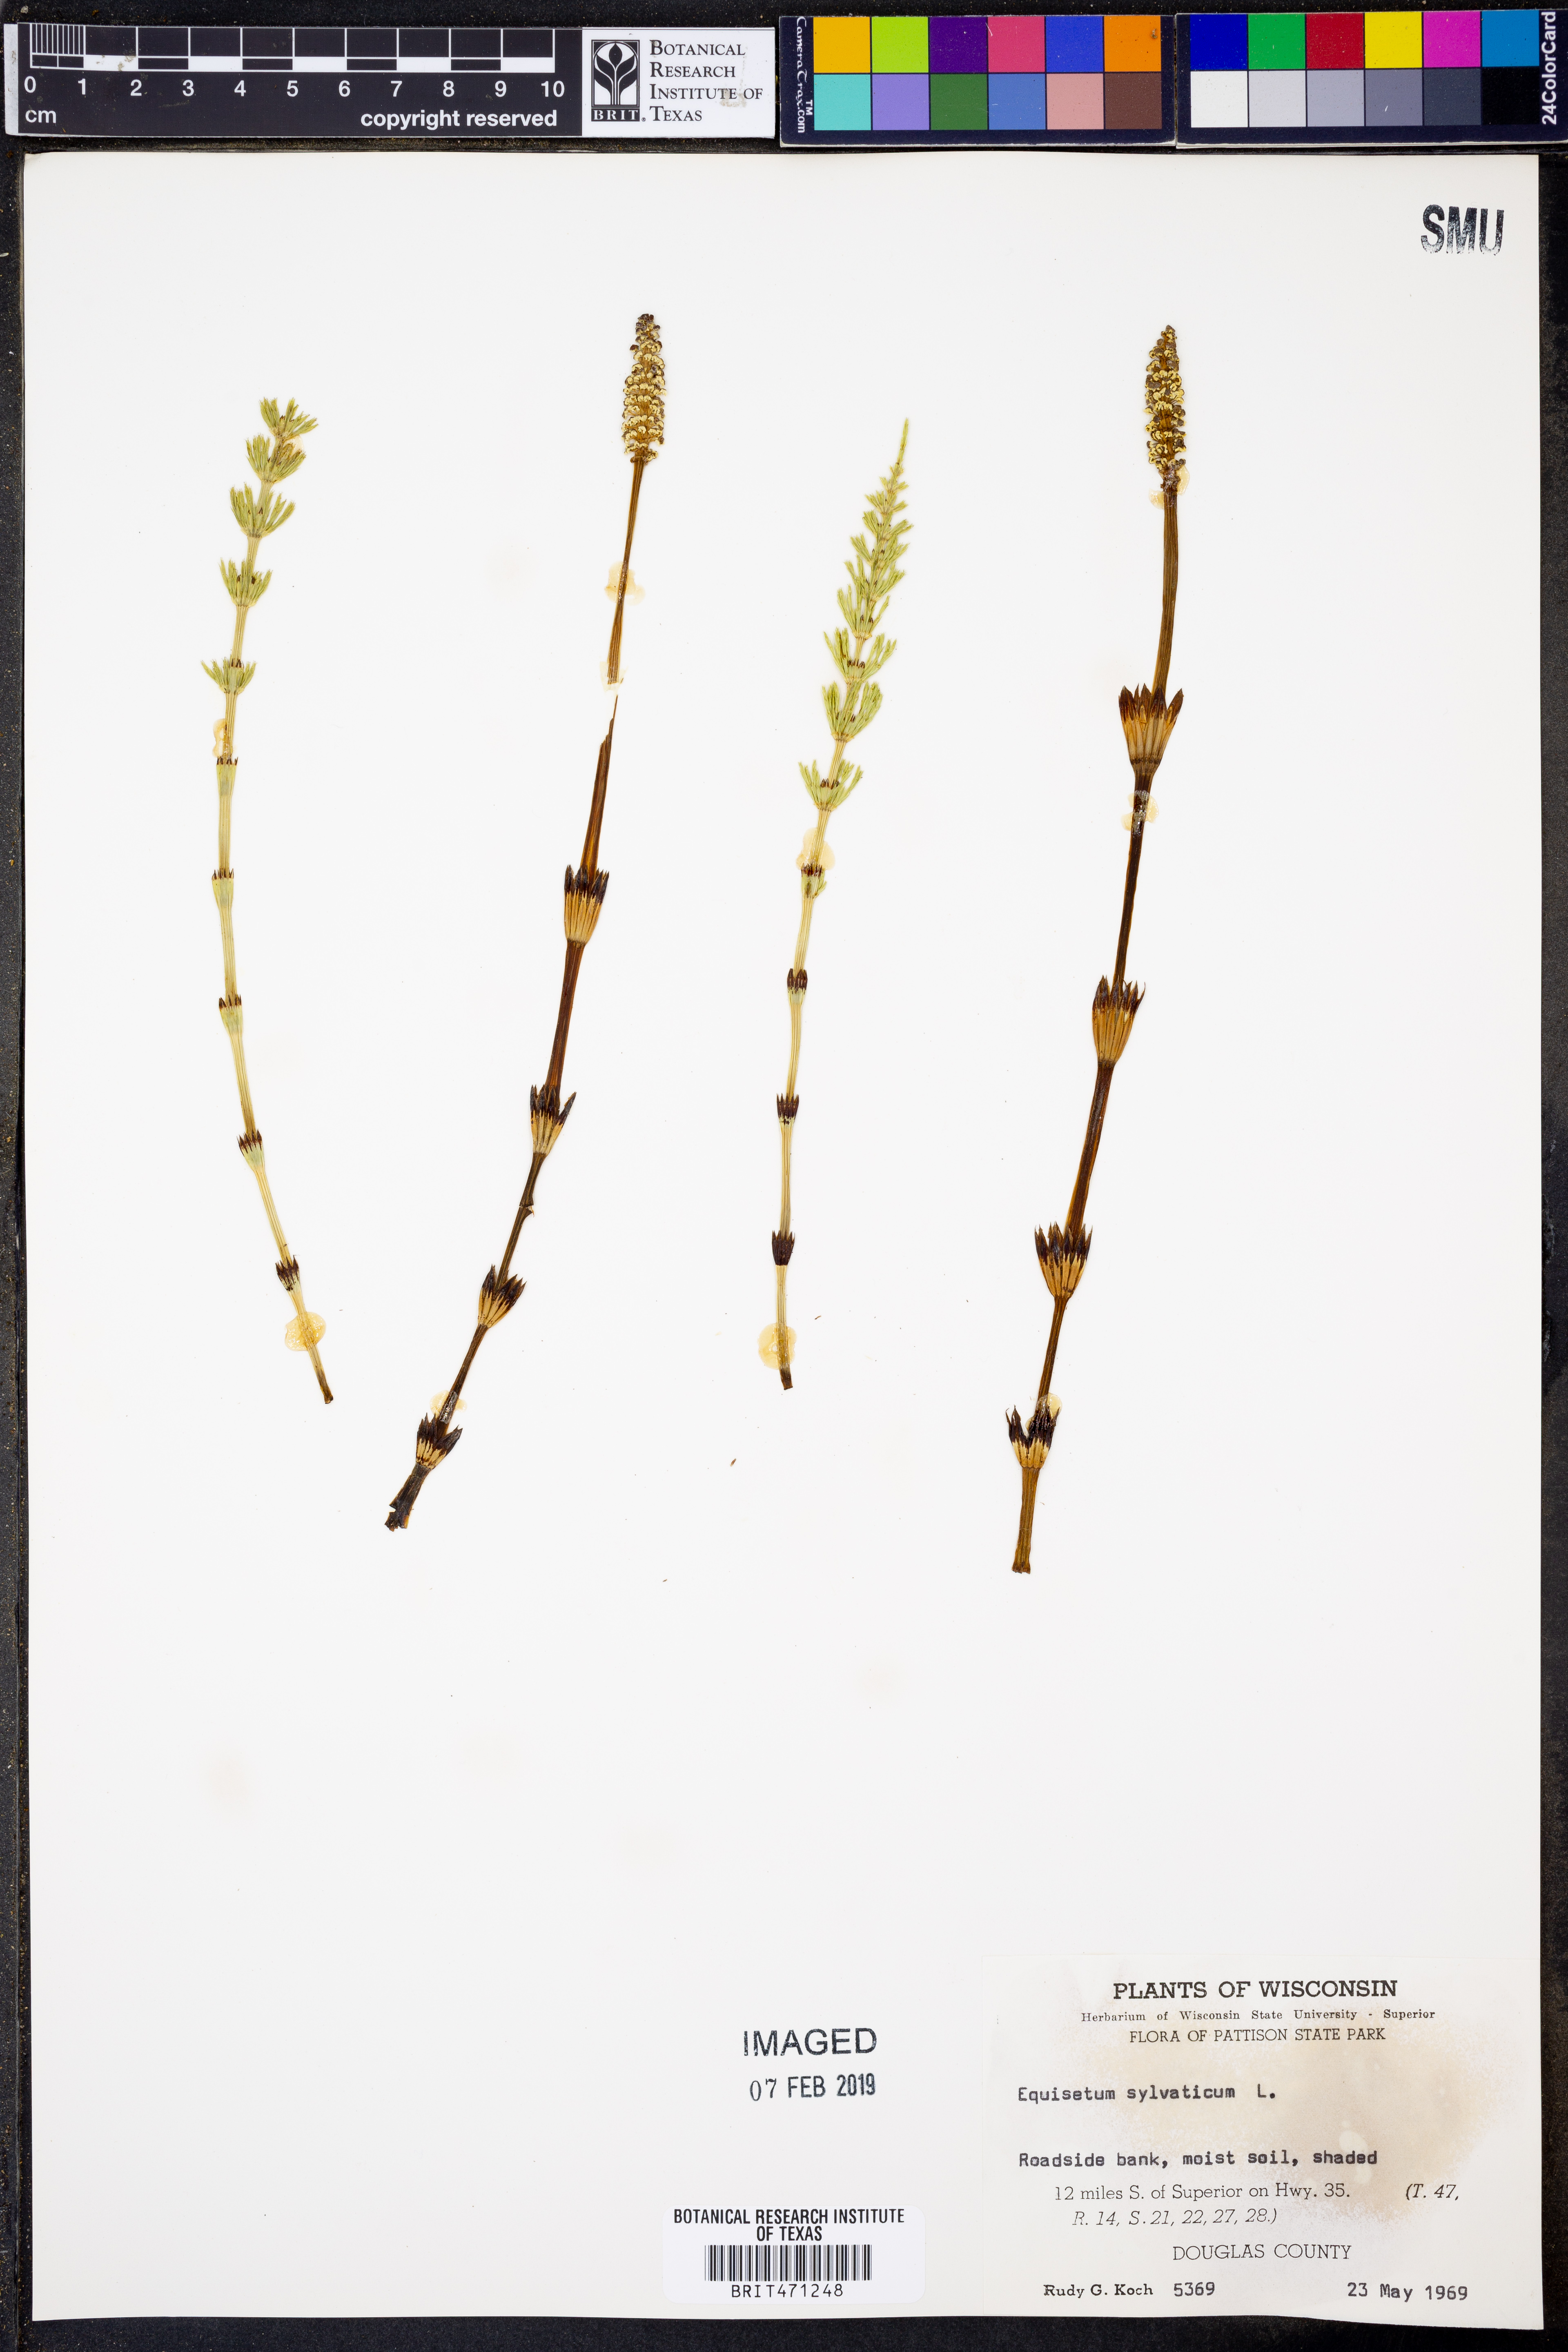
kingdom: Plantae
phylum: Tracheophyta
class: Polypodiopsida
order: Equisetales
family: Equisetaceae
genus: Equisetum
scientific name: Equisetum sylvaticum
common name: Wood horsetail
